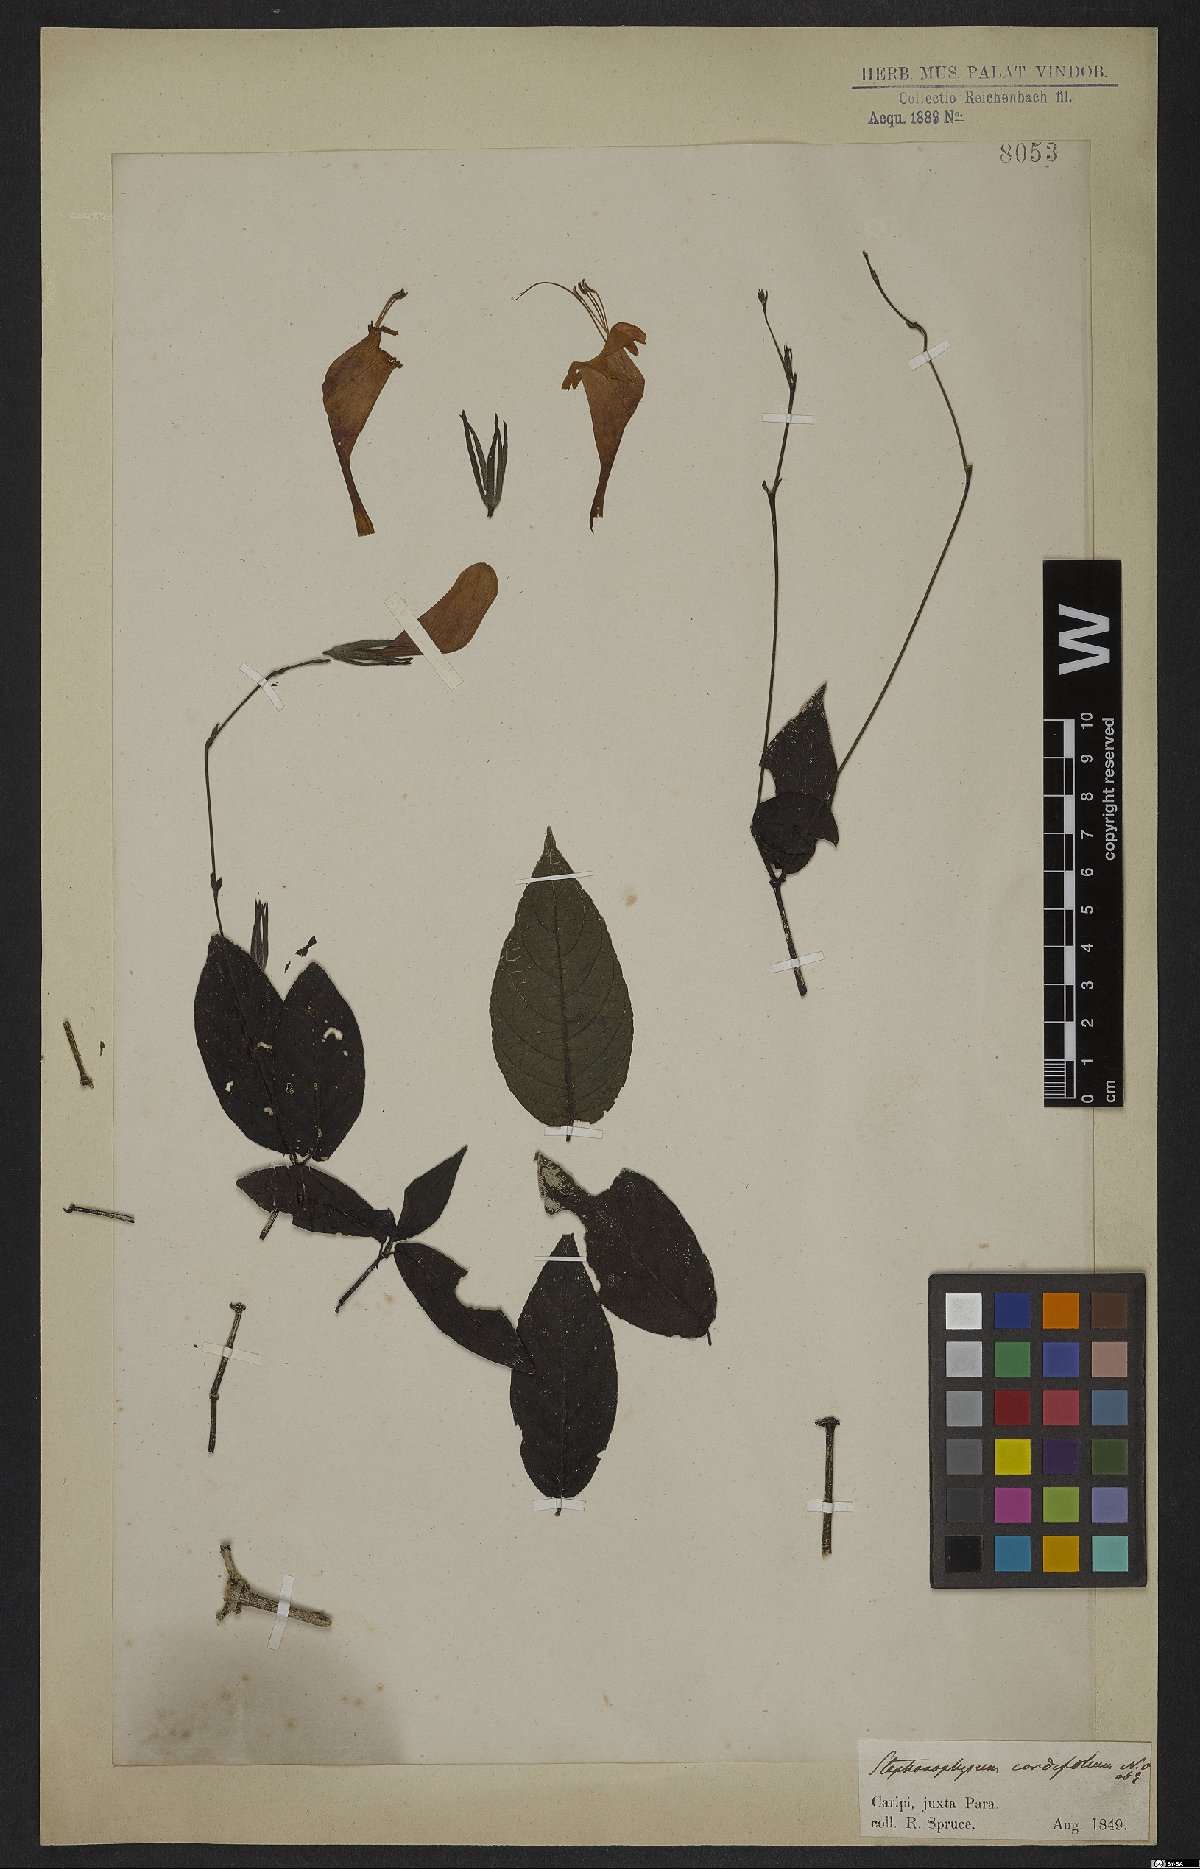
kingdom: Plantae
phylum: Tracheophyta
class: Magnoliopsida
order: Lamiales
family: Acanthaceae
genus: Ruellia
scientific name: Ruellia inflata
